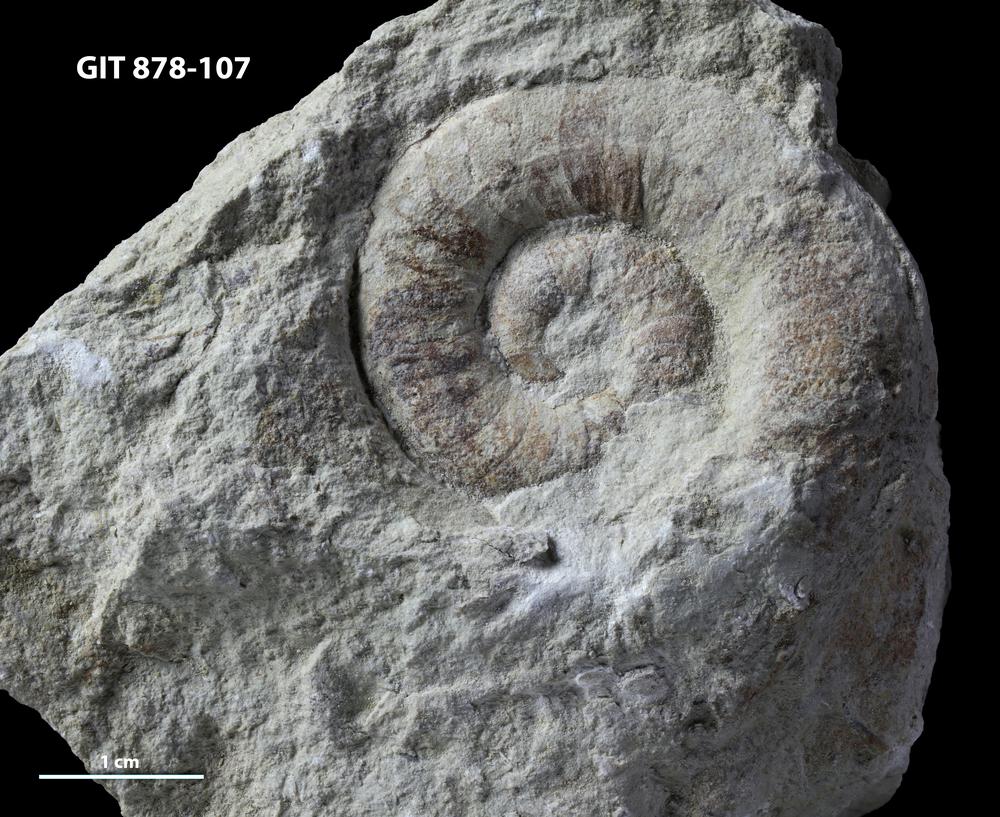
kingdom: Animalia
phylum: Mollusca
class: Cephalopoda
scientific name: Cephalopoda
